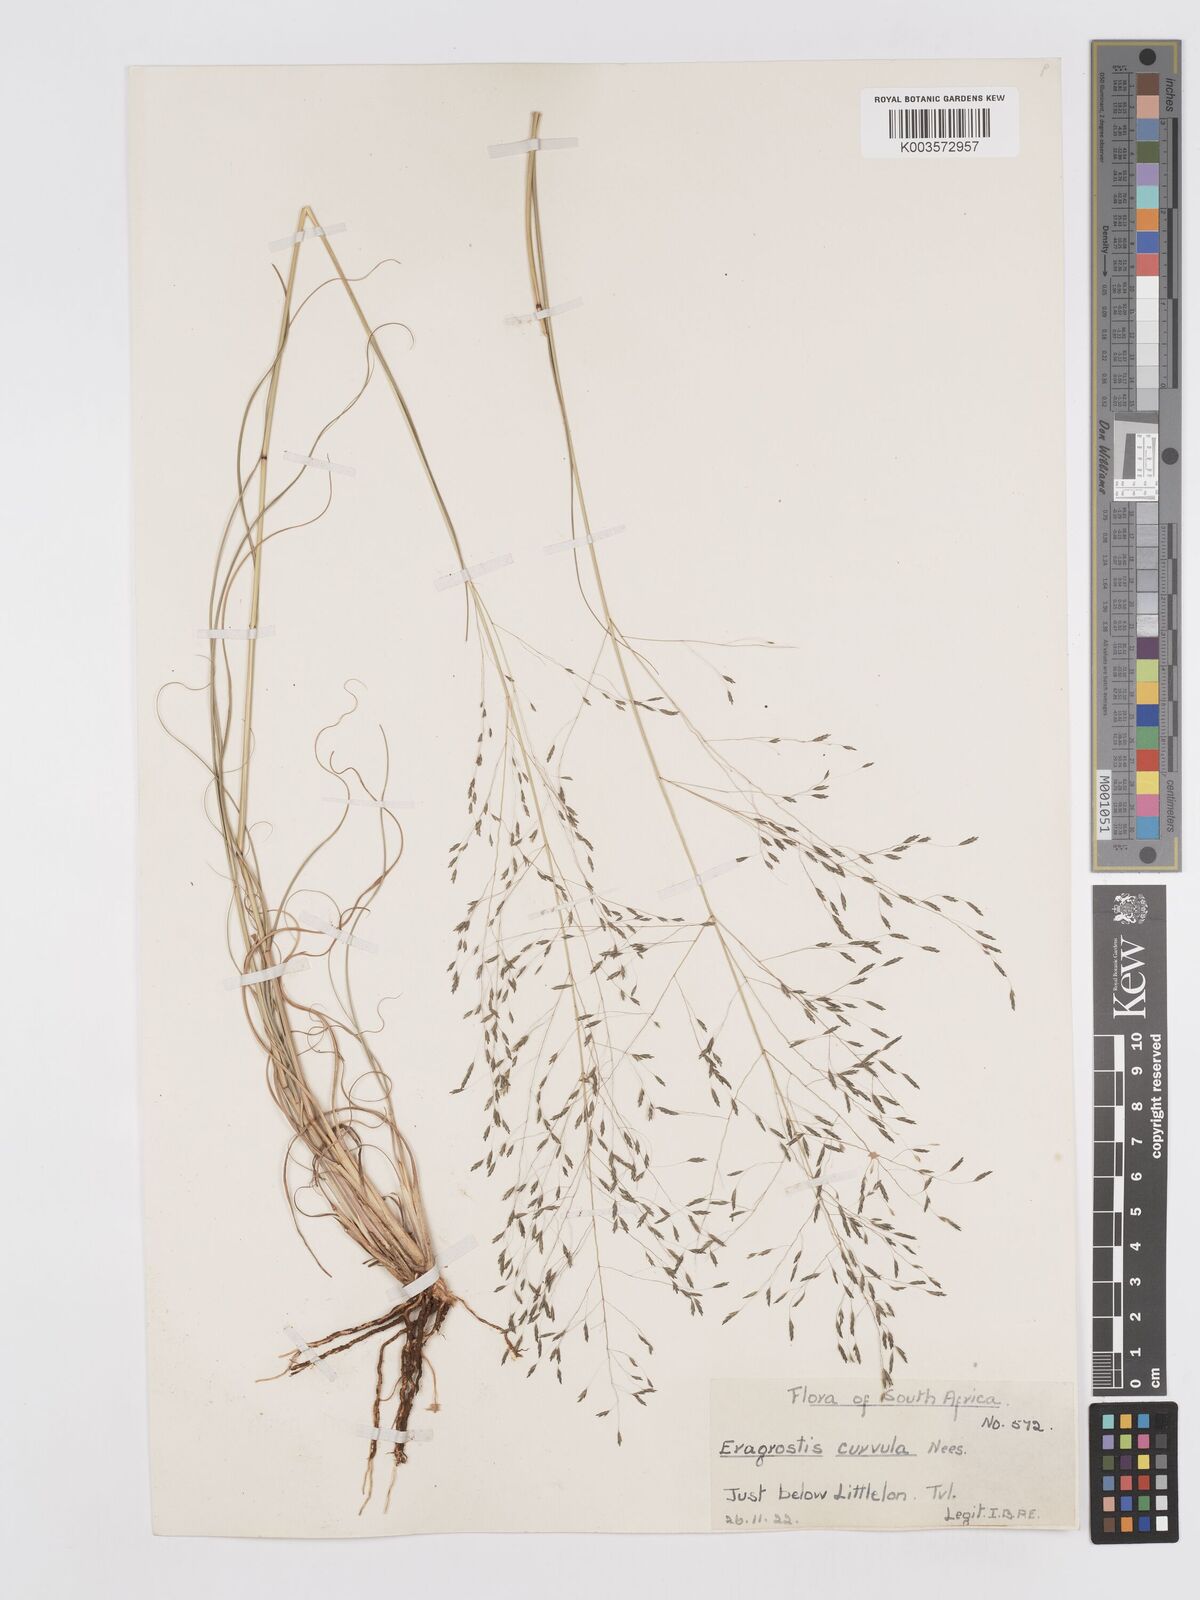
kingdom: Plantae
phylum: Tracheophyta
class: Liliopsida
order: Poales
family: Poaceae
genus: Eragrostis
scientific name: Eragrostis curvula
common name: African love-grass
